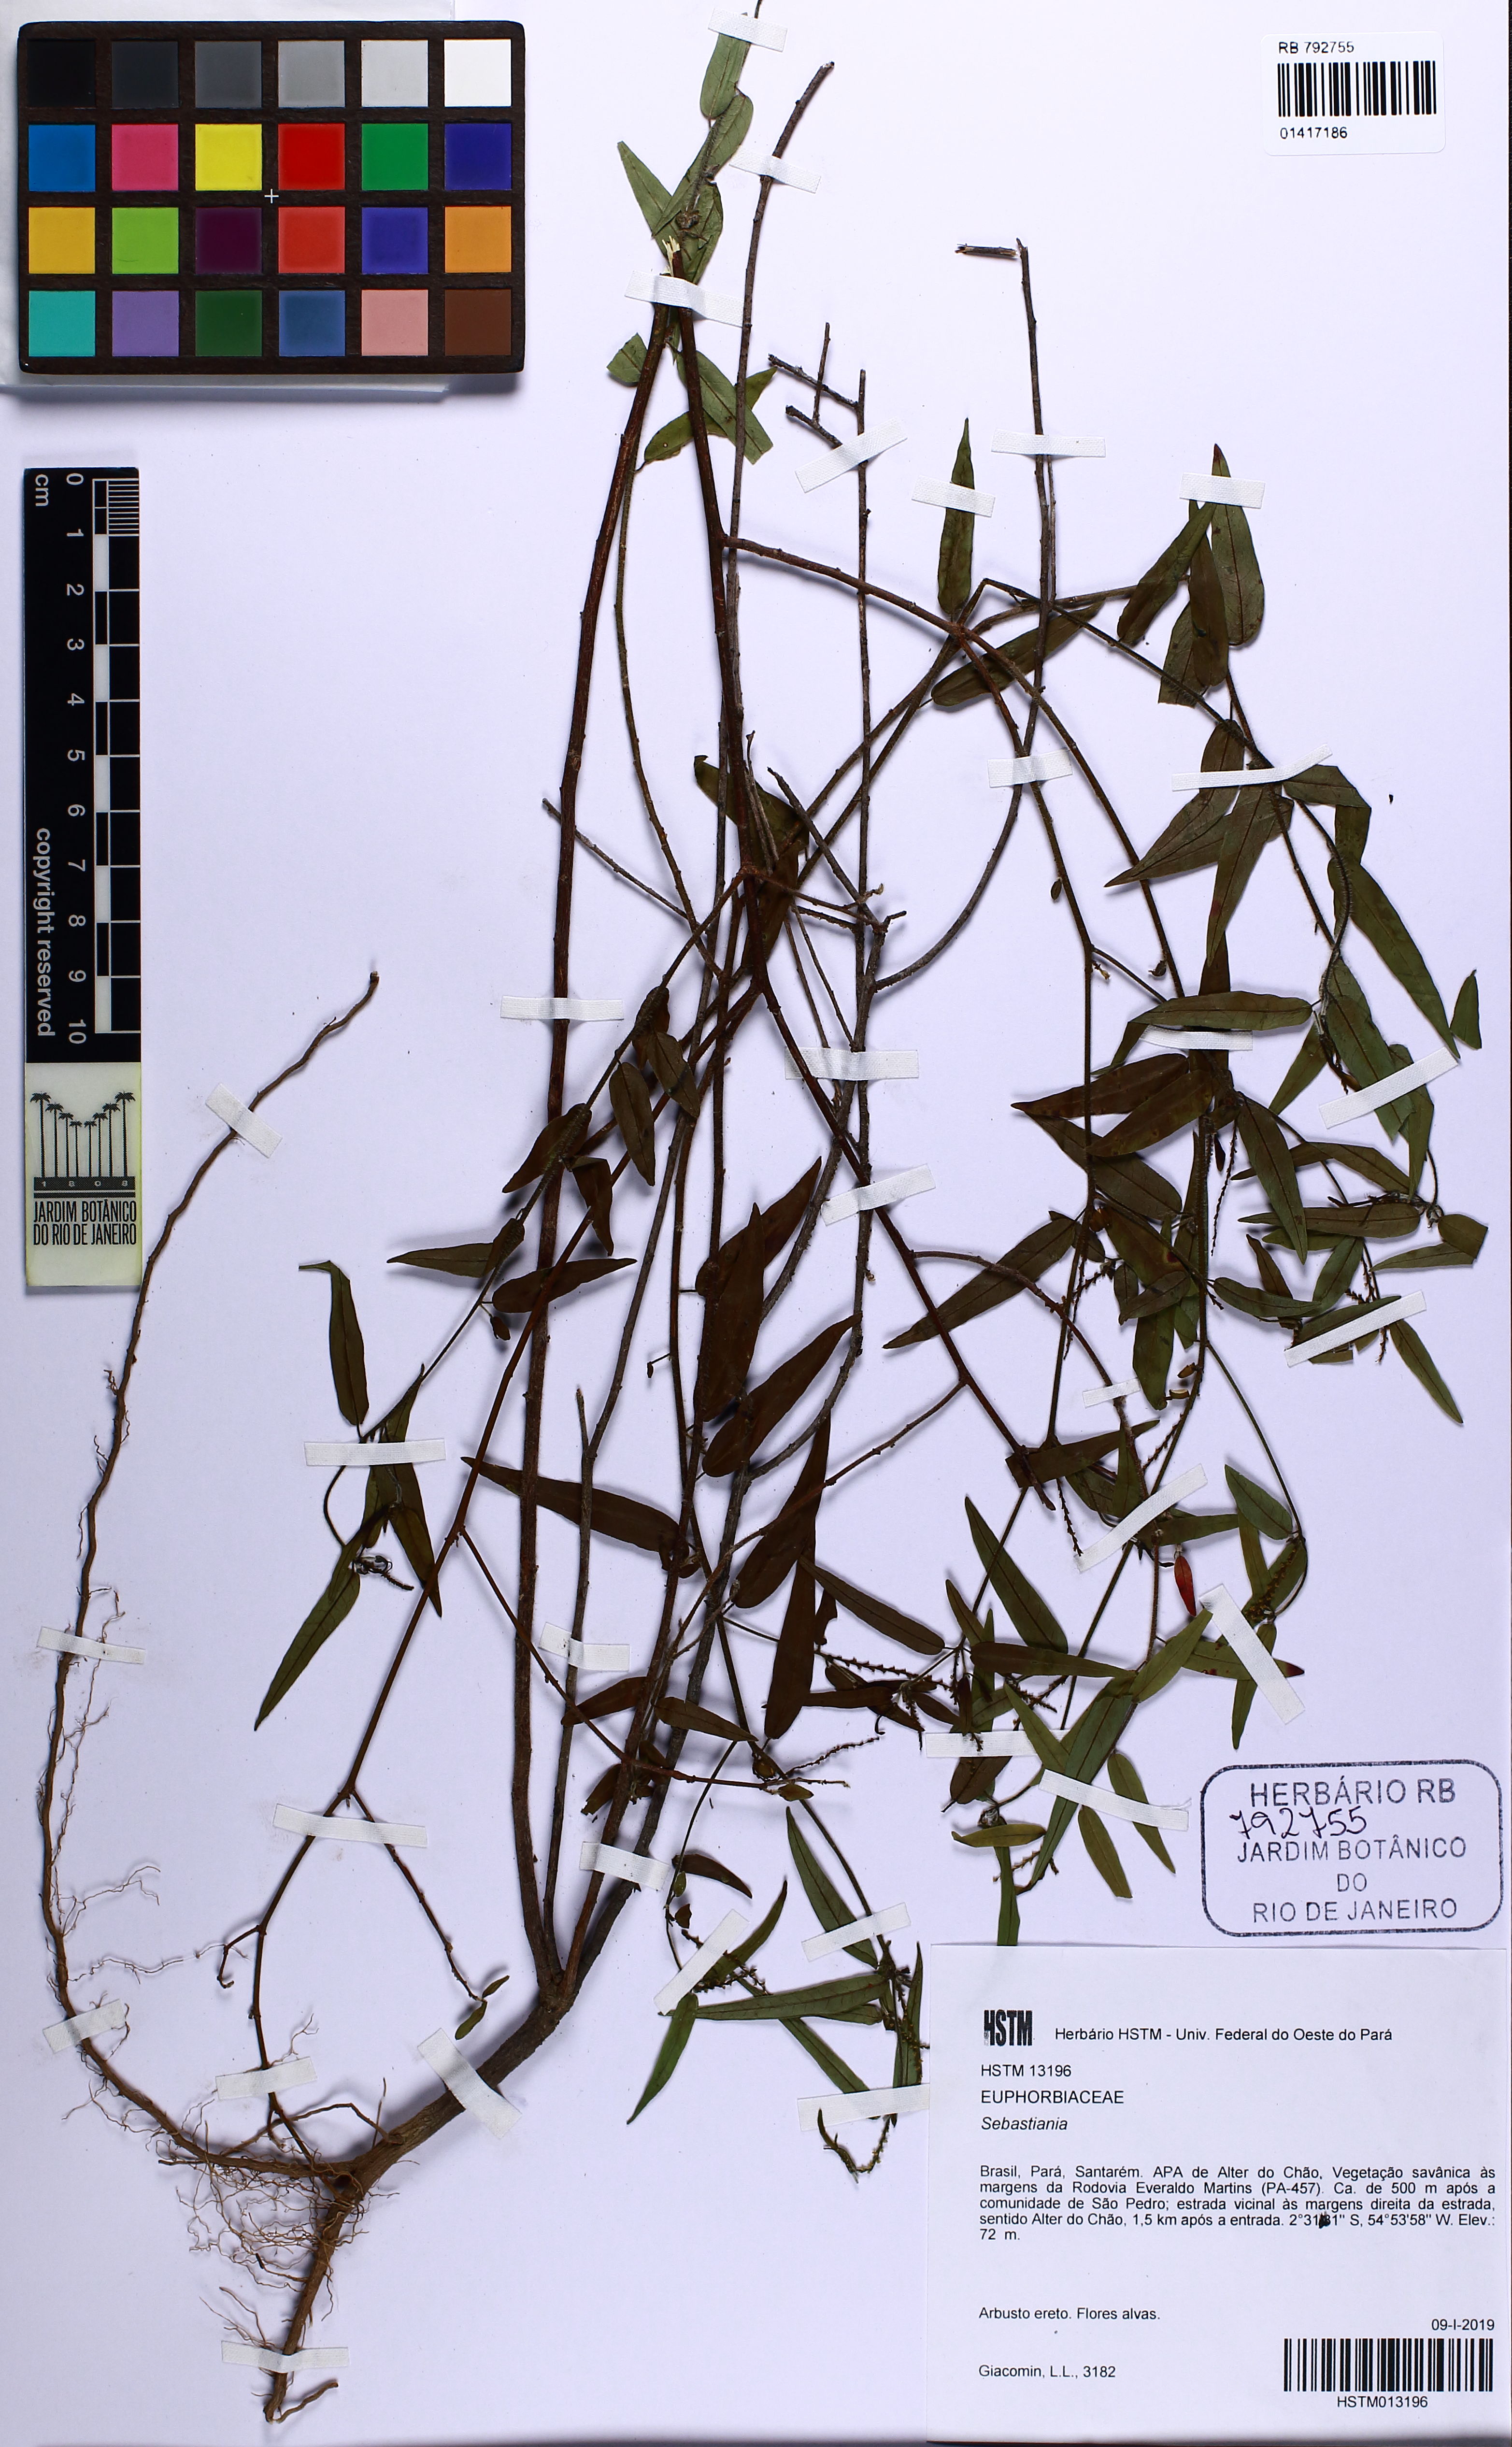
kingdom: Plantae
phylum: Tracheophyta
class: Magnoliopsida
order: Malpighiales
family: Euphorbiaceae
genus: Sebastiania
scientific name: Sebastiania
